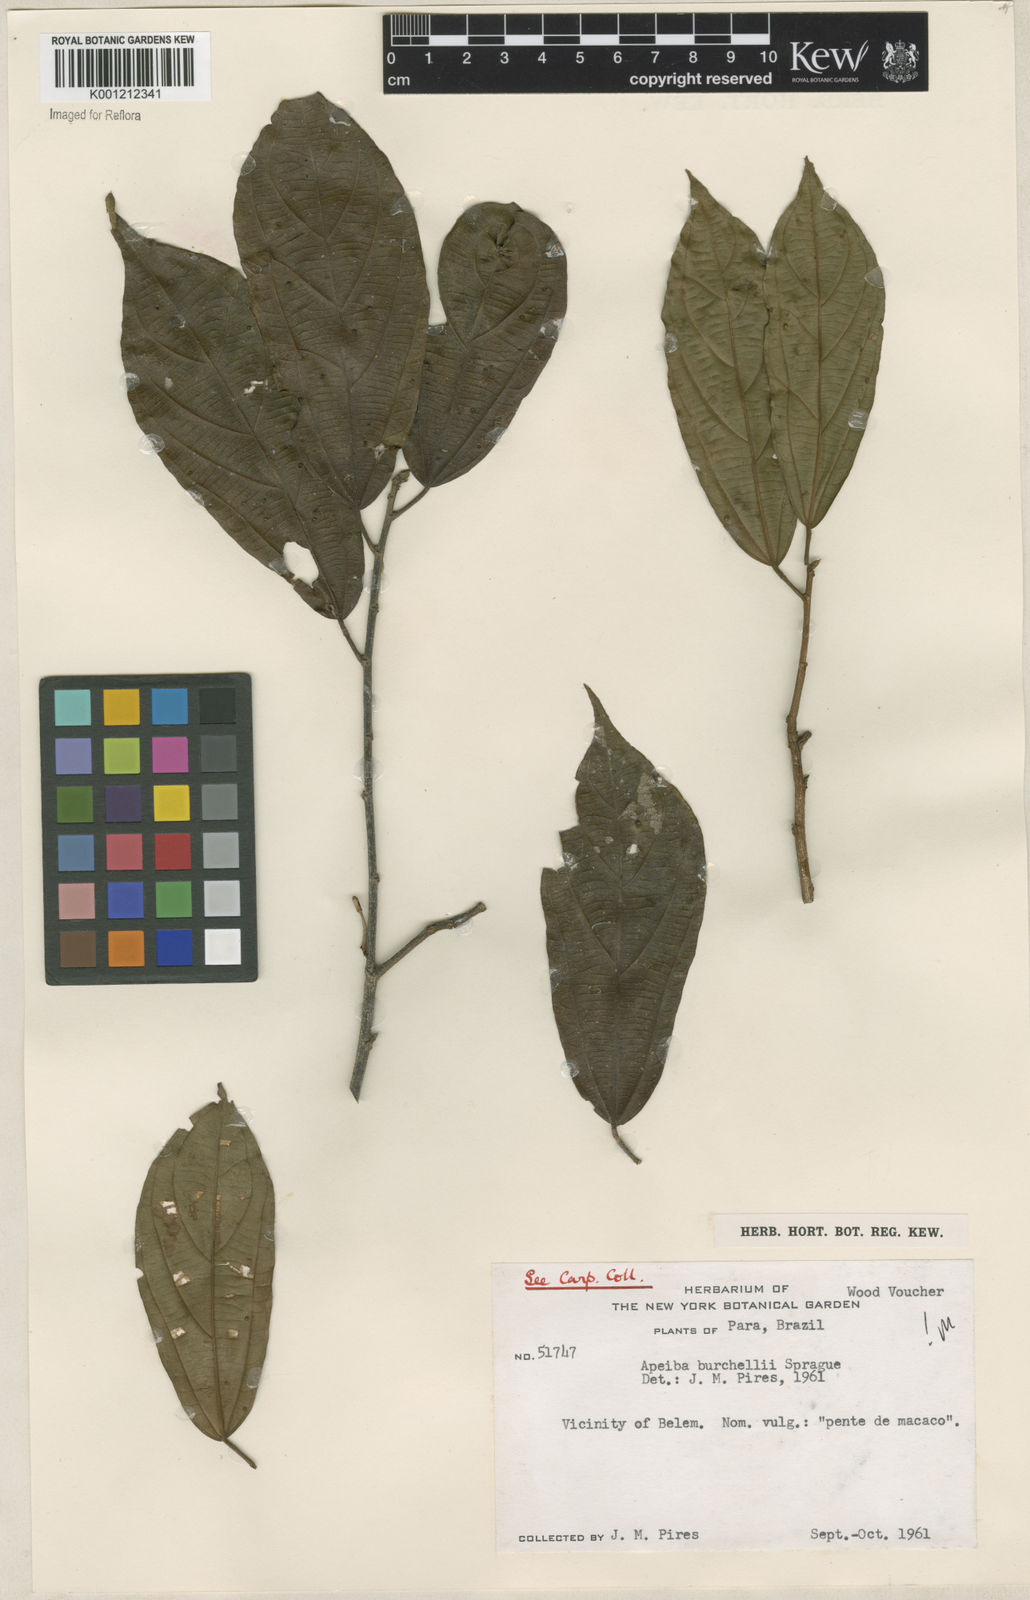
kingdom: Plantae
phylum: Tracheophyta
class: Magnoliopsida
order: Malvales
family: Malvaceae
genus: Apeiba
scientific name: Apeiba glabra
